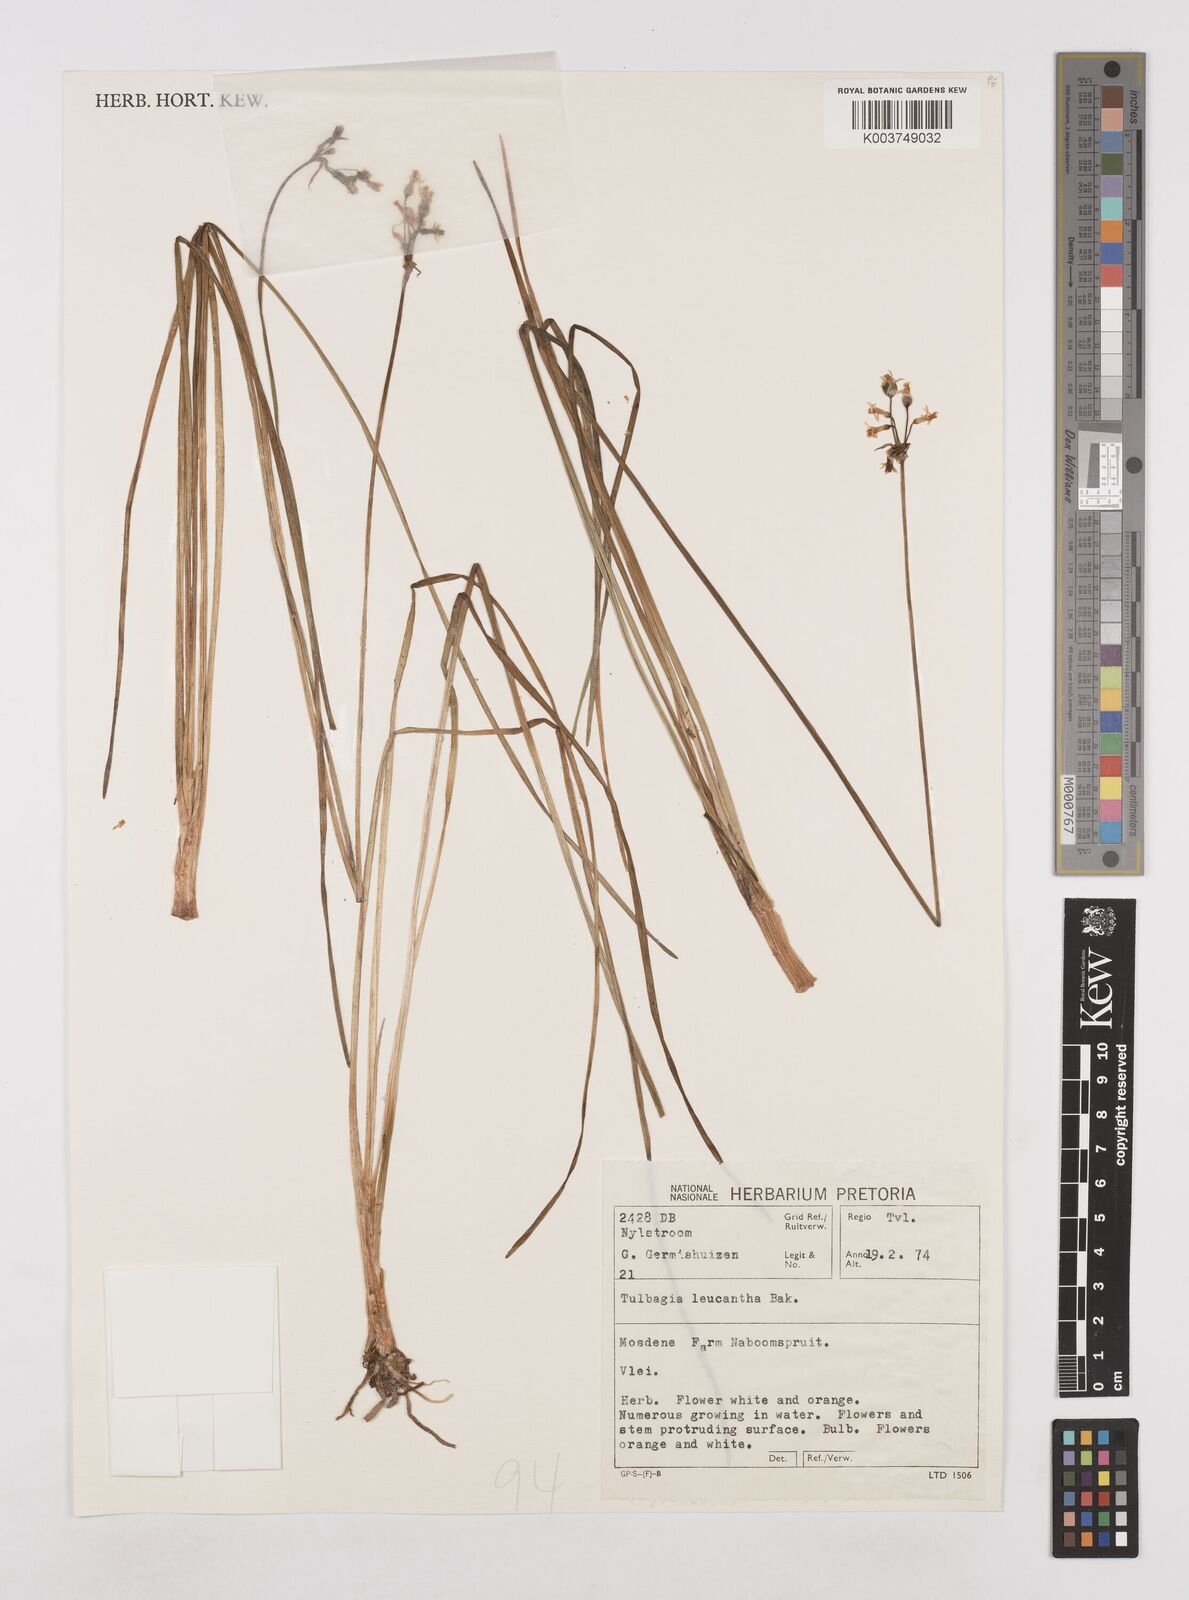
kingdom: Plantae
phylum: Tracheophyta
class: Liliopsida
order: Asparagales
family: Amaryllidaceae
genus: Tulbaghia
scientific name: Tulbaghia leucantha
